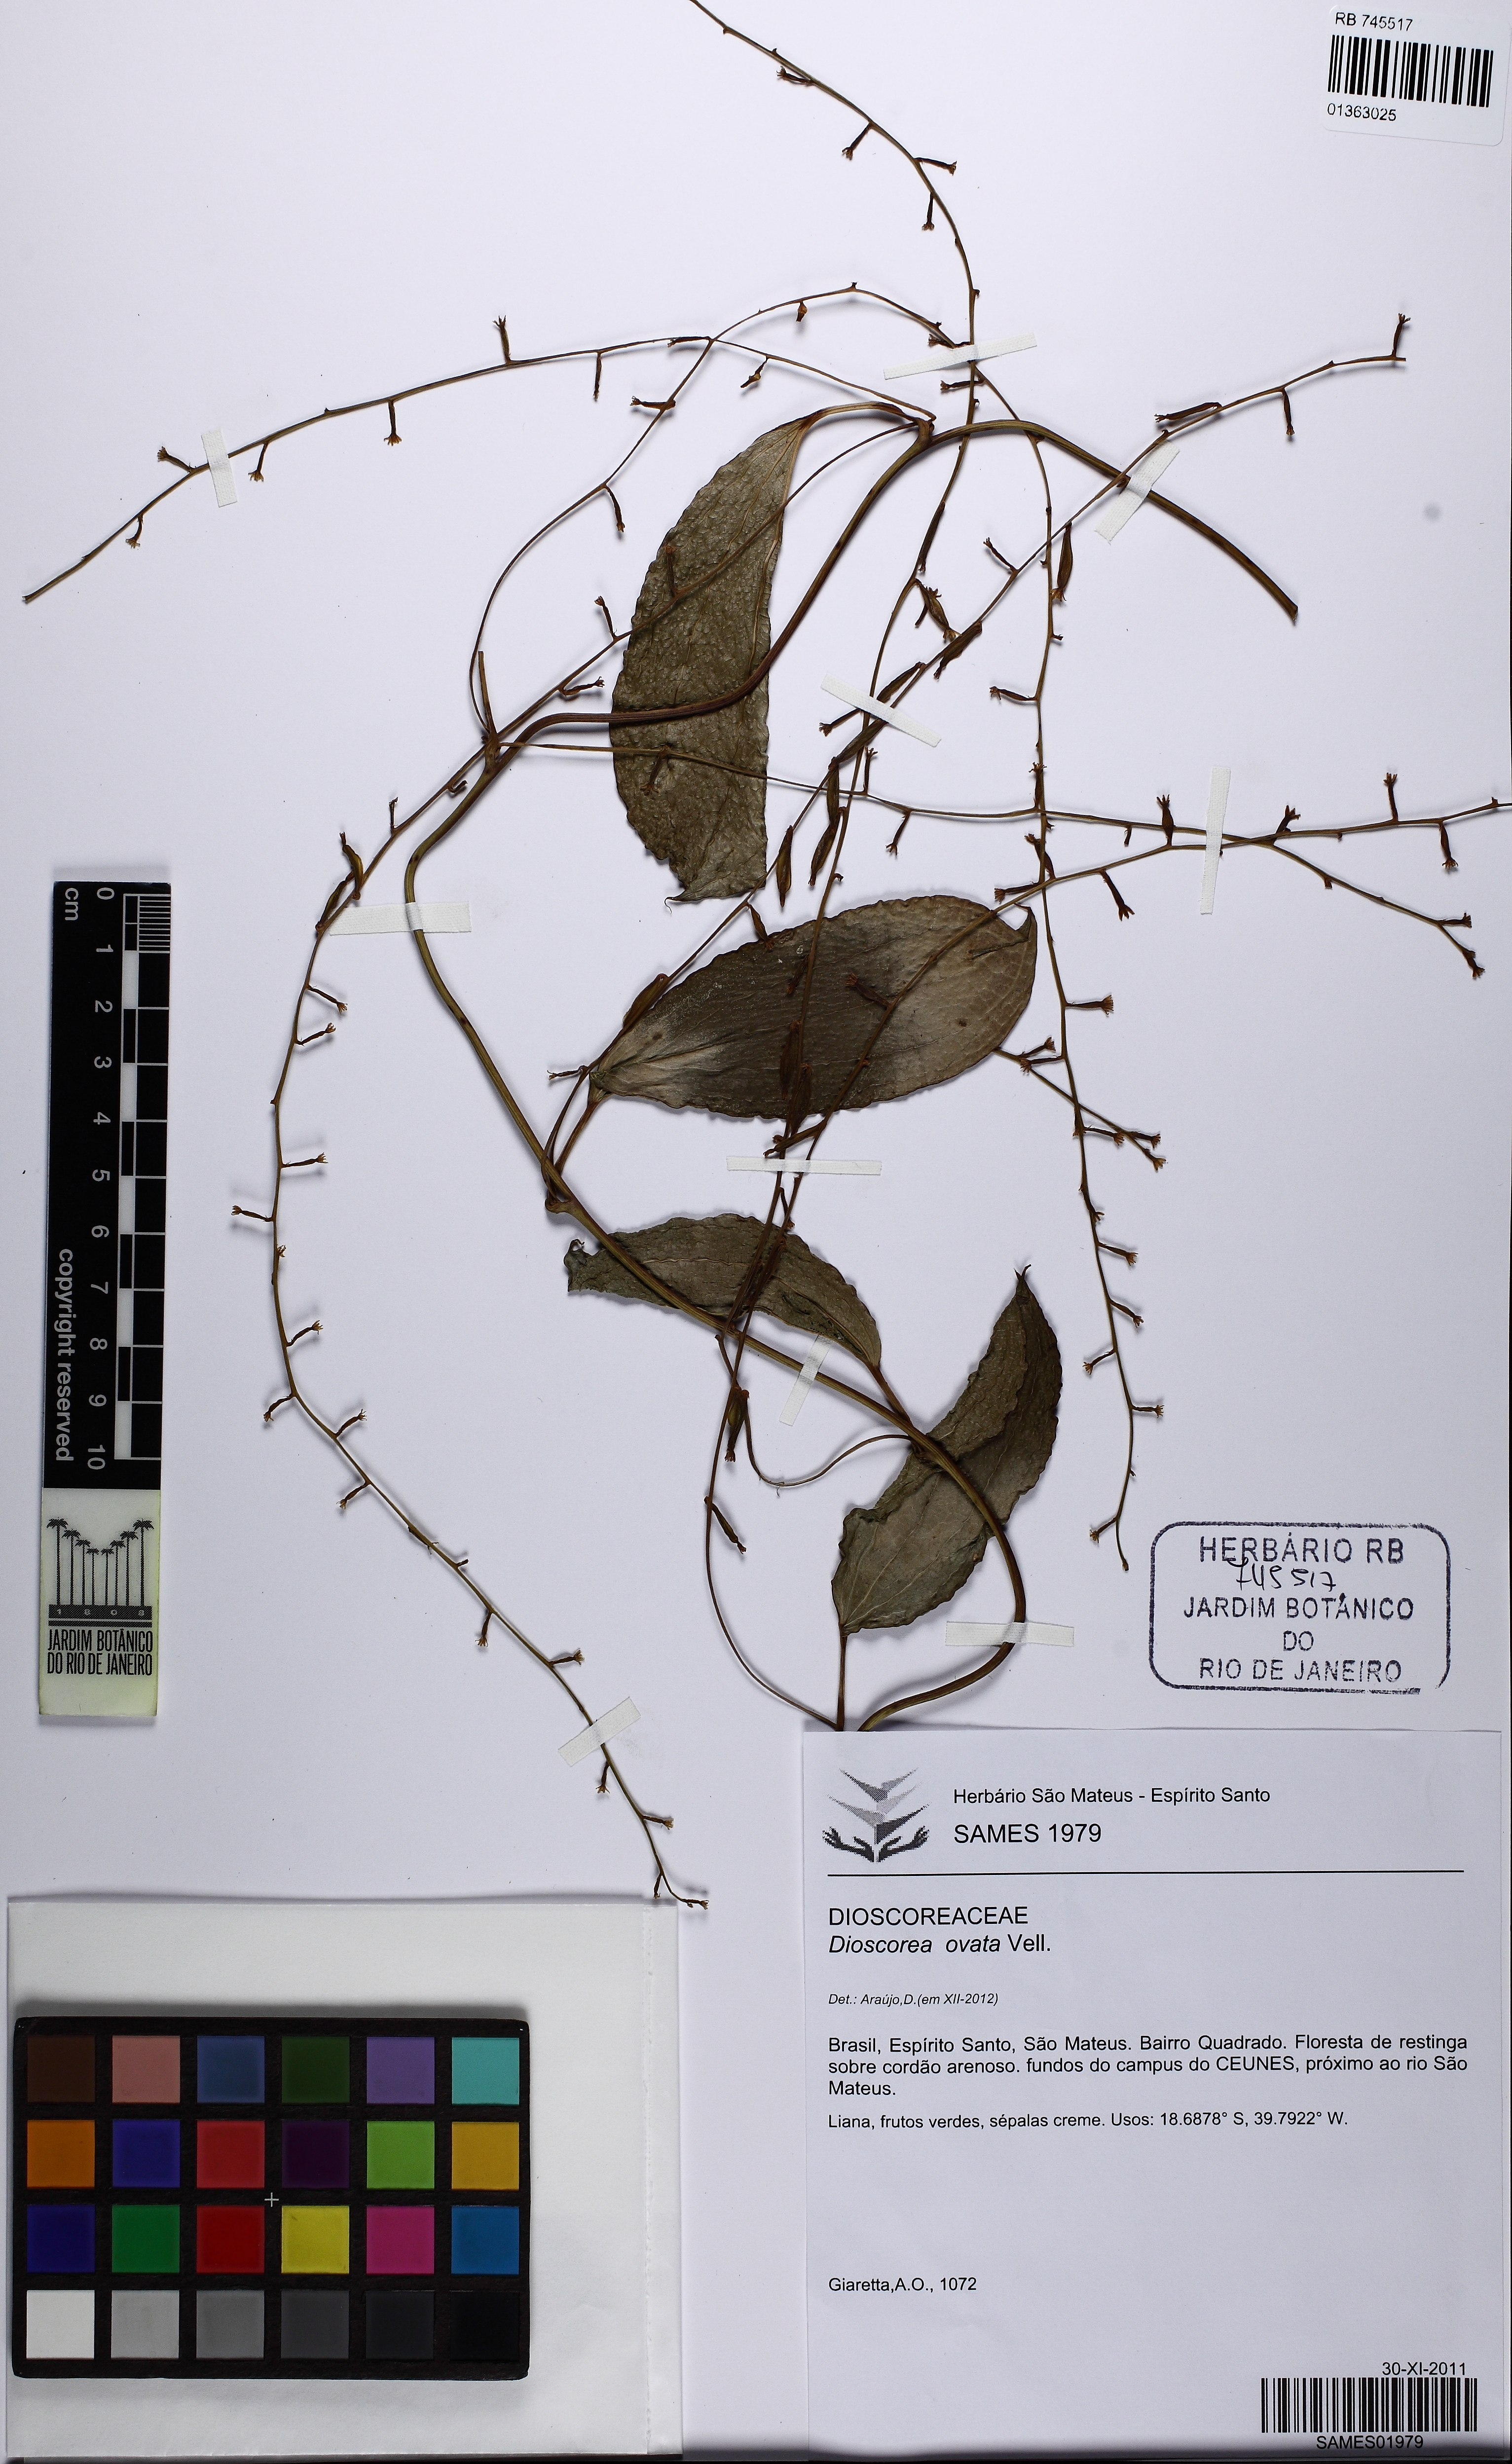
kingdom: Plantae
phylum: Tracheophyta
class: Liliopsida
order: Dioscoreales
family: Dioscoreaceae
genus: Dioscorea
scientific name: Dioscorea ovata
